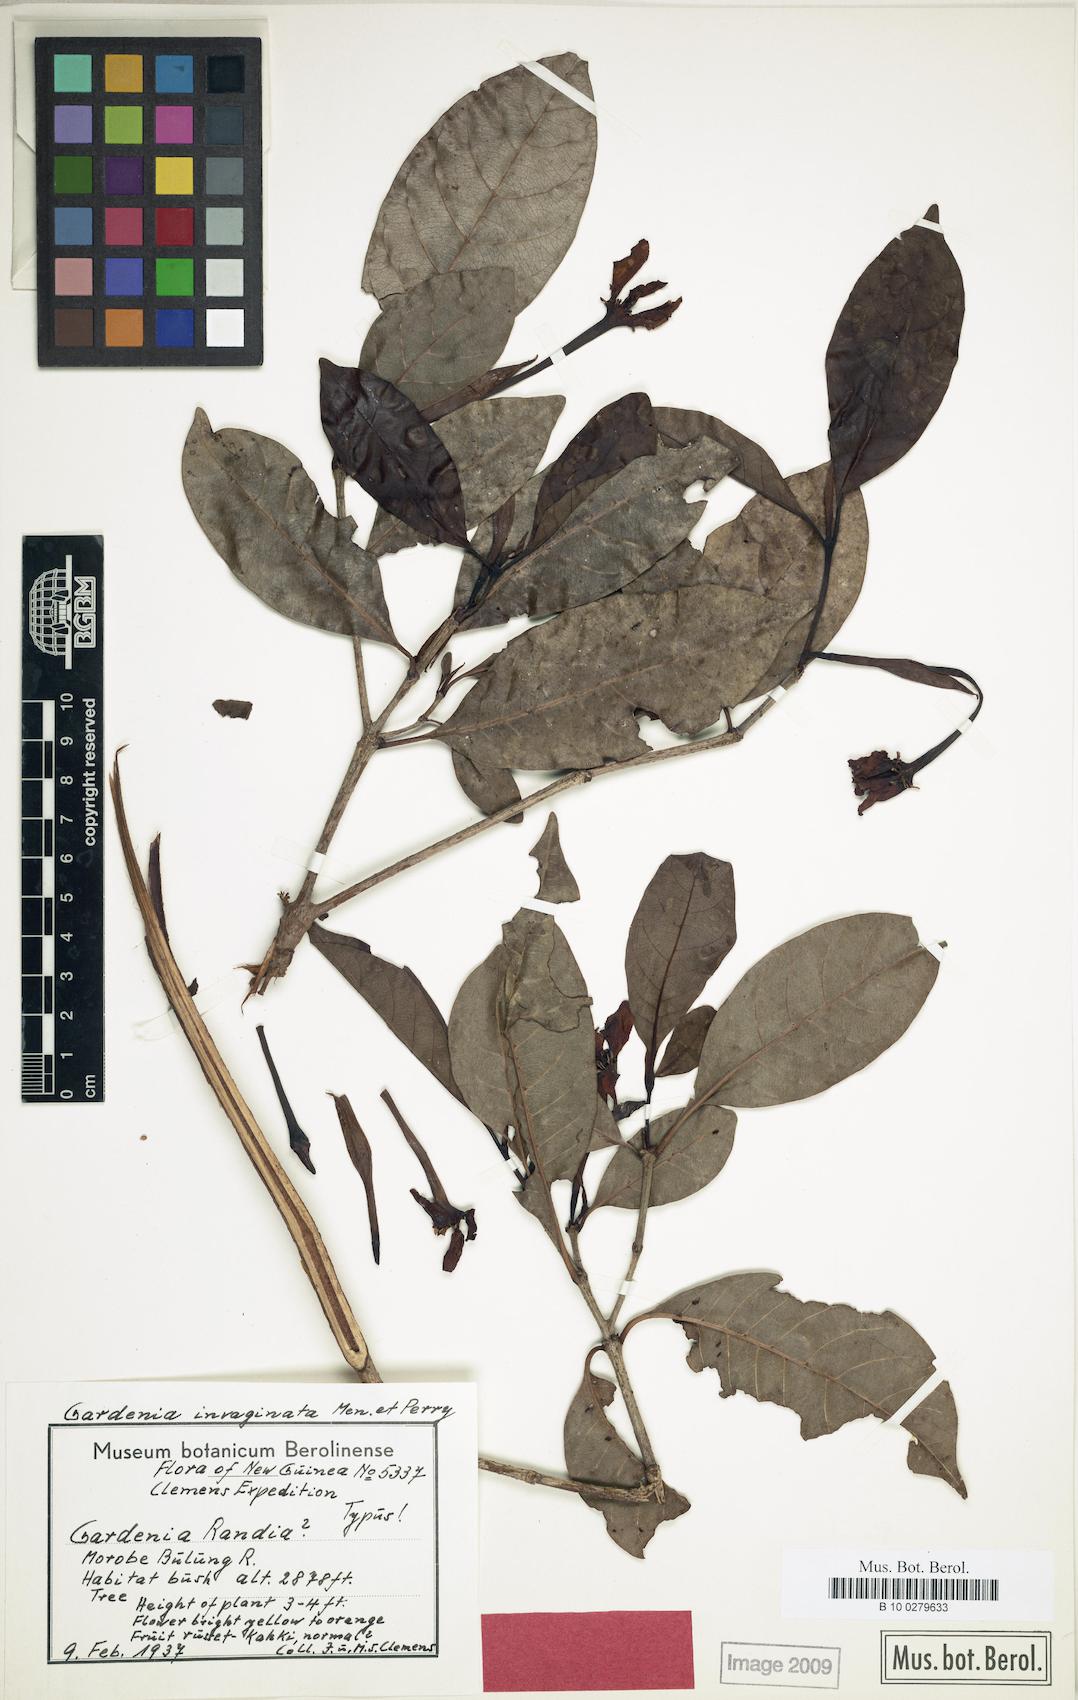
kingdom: Plantae
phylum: Tracheophyta
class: Magnoliopsida
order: Gentianales
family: Rubiaceae
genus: Gardenia
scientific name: Gardenia invaginata
